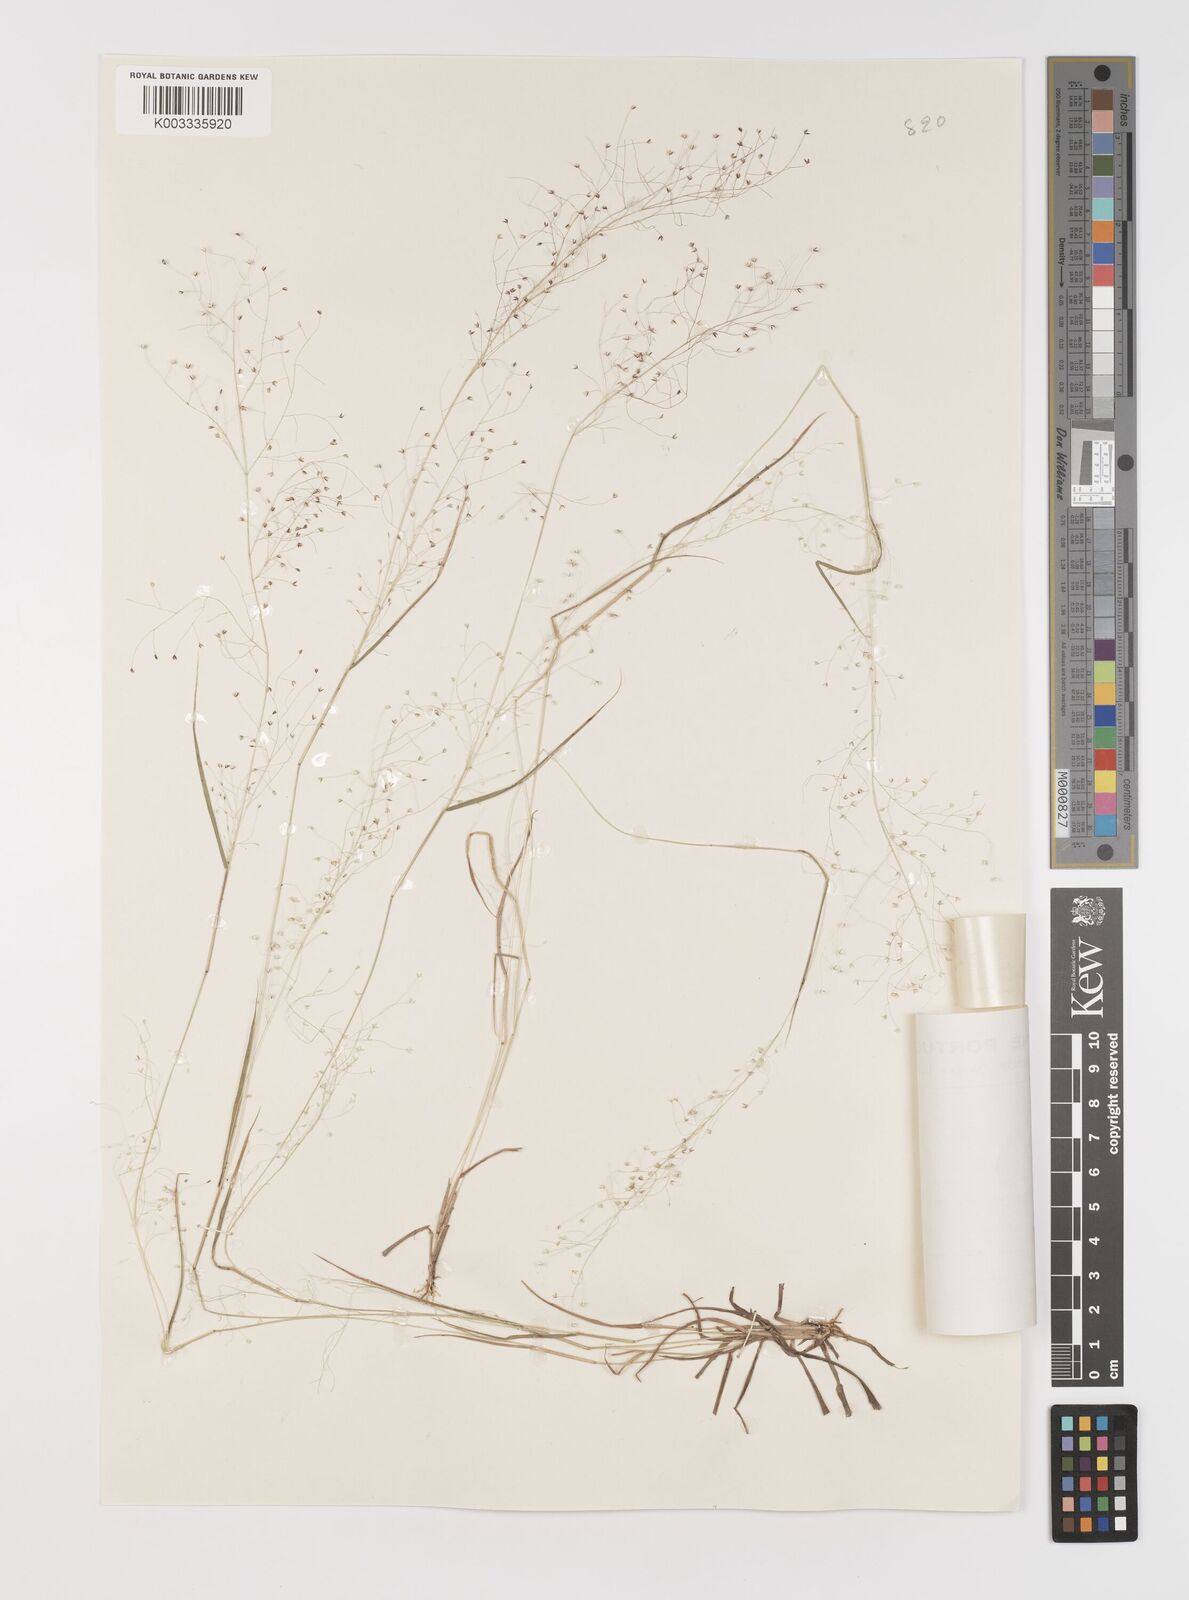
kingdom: Plantae
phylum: Tracheophyta
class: Liliopsida
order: Poales
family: Poaceae
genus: Panicum
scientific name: Panicum afzelii
